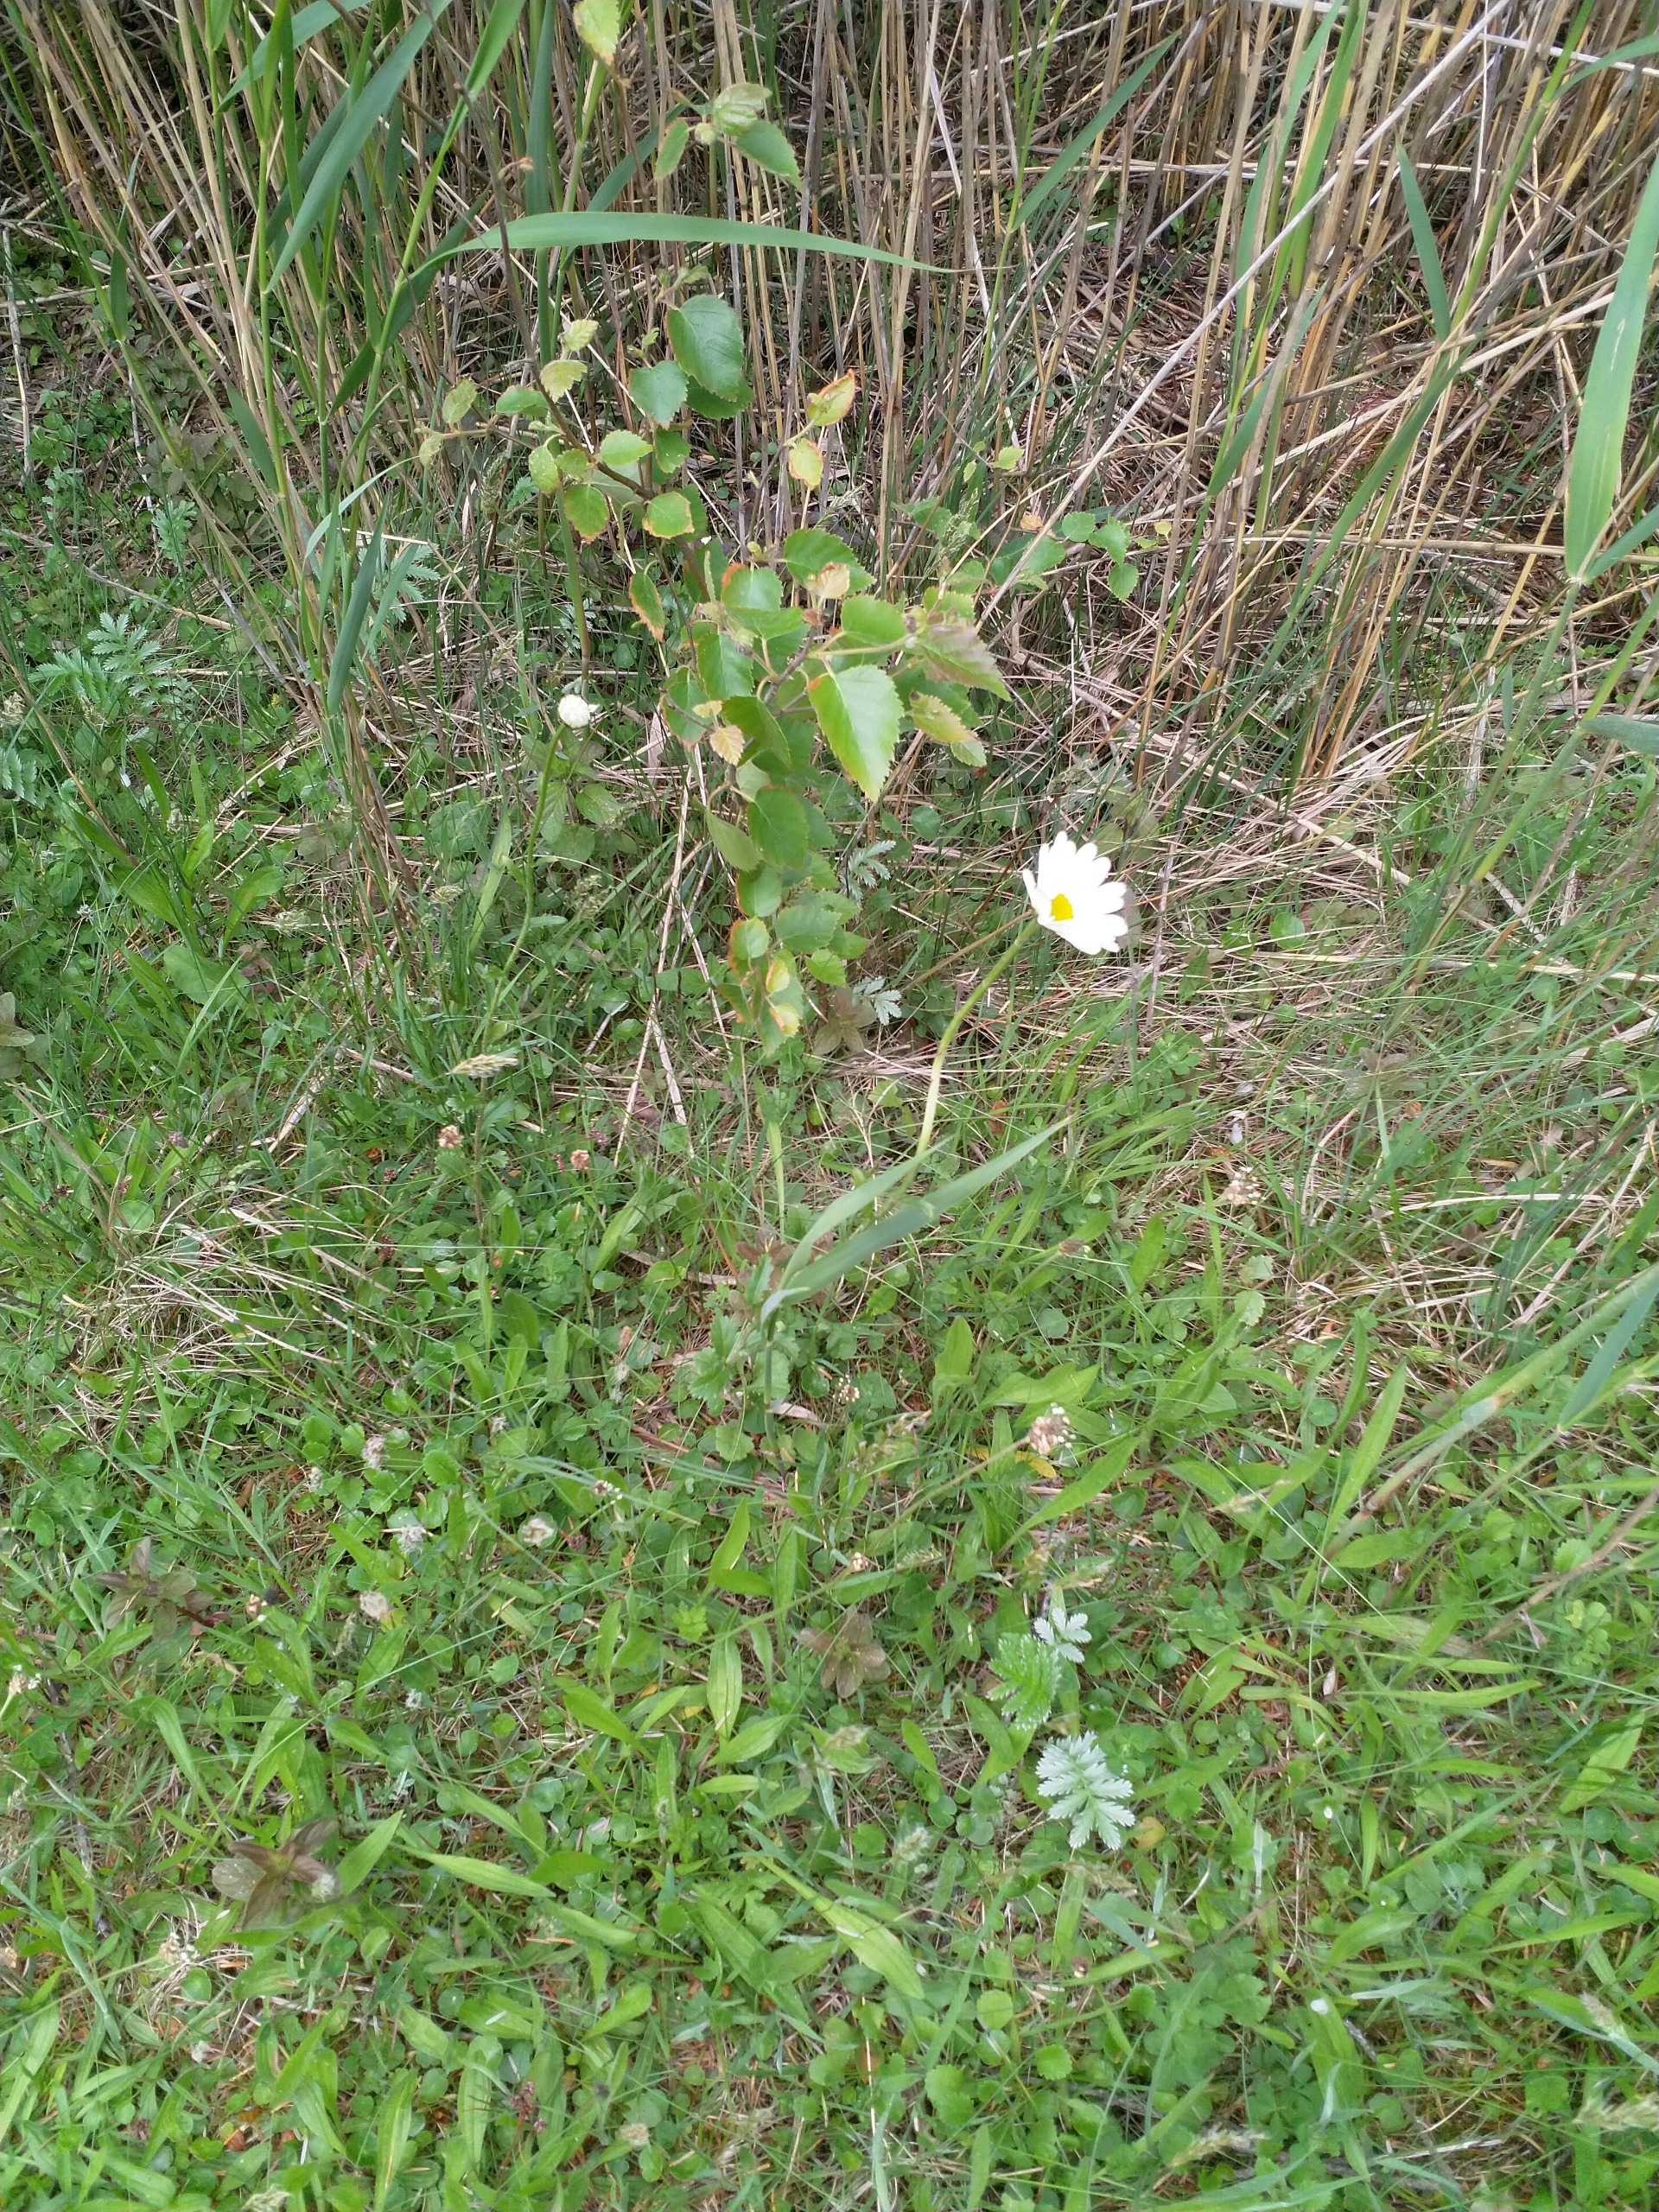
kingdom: Plantae
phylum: Tracheophyta
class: Magnoliopsida
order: Asterales
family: Asteraceae
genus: Leucanthemum
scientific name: Leucanthemum vulgare
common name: Hvid okseøje
